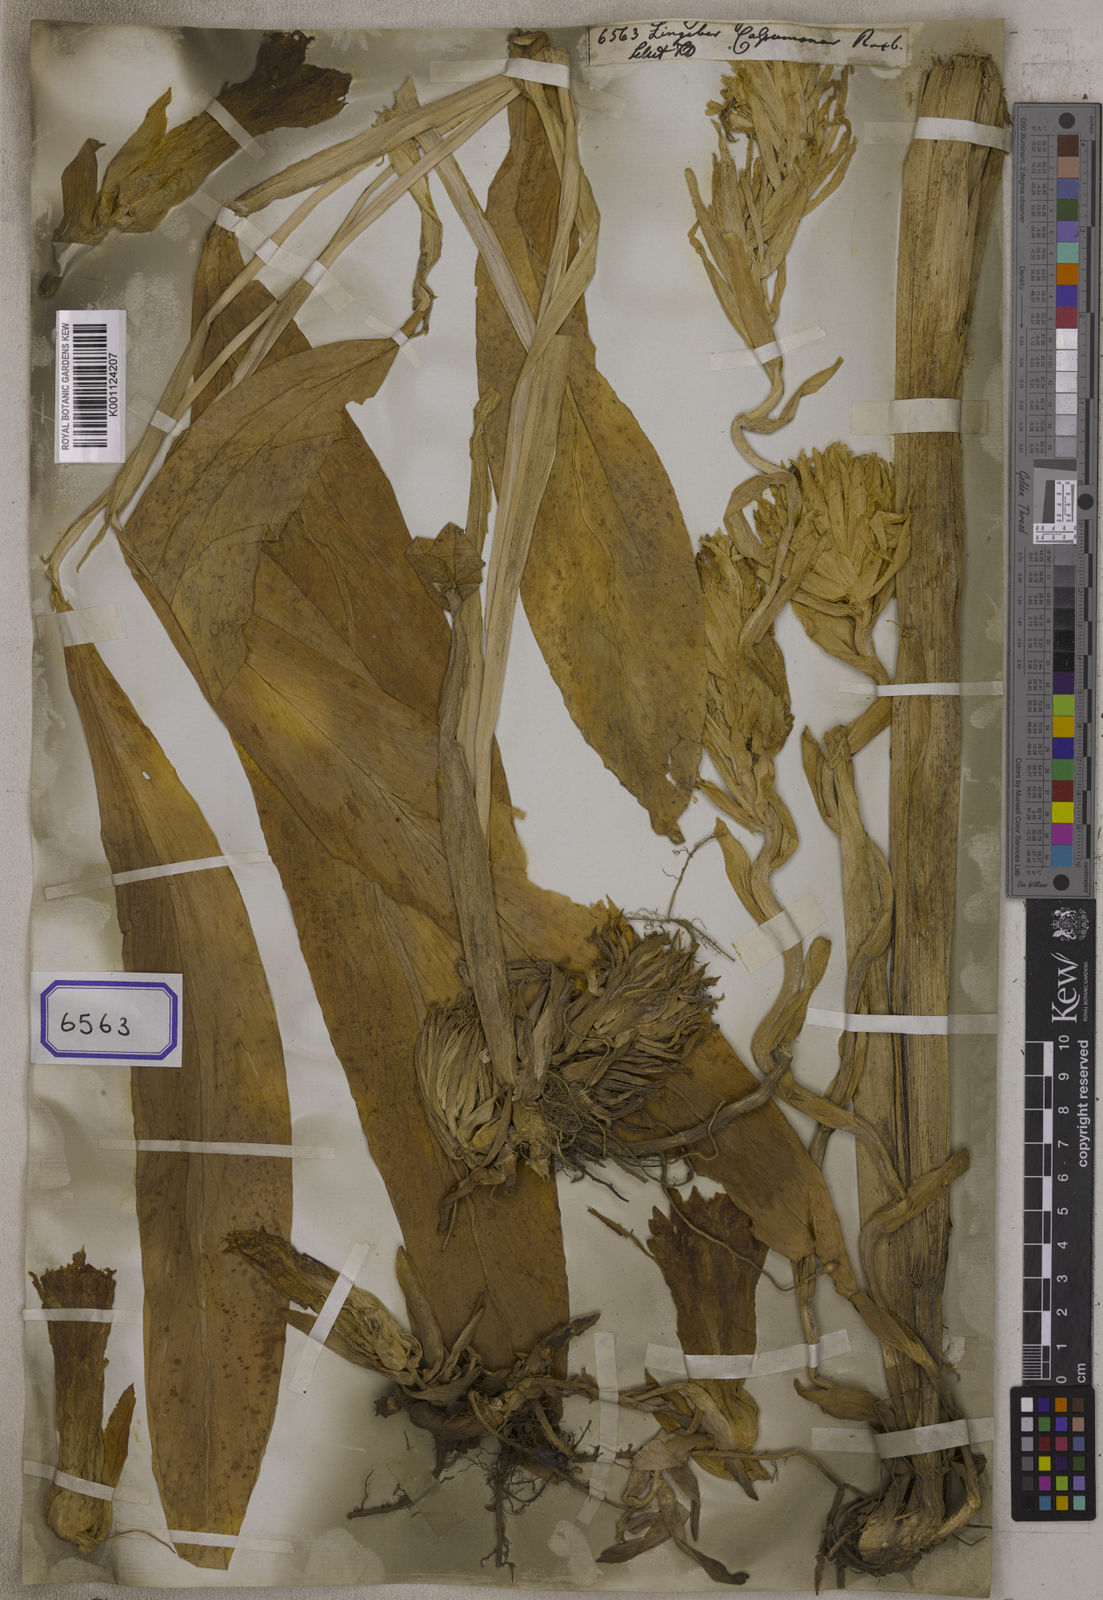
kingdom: Plantae
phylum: Tracheophyta
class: Liliopsida
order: Zingiberales
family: Zingiberaceae
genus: Zingiber
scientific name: Zingiber purpureum
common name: Cassumunar ginger
